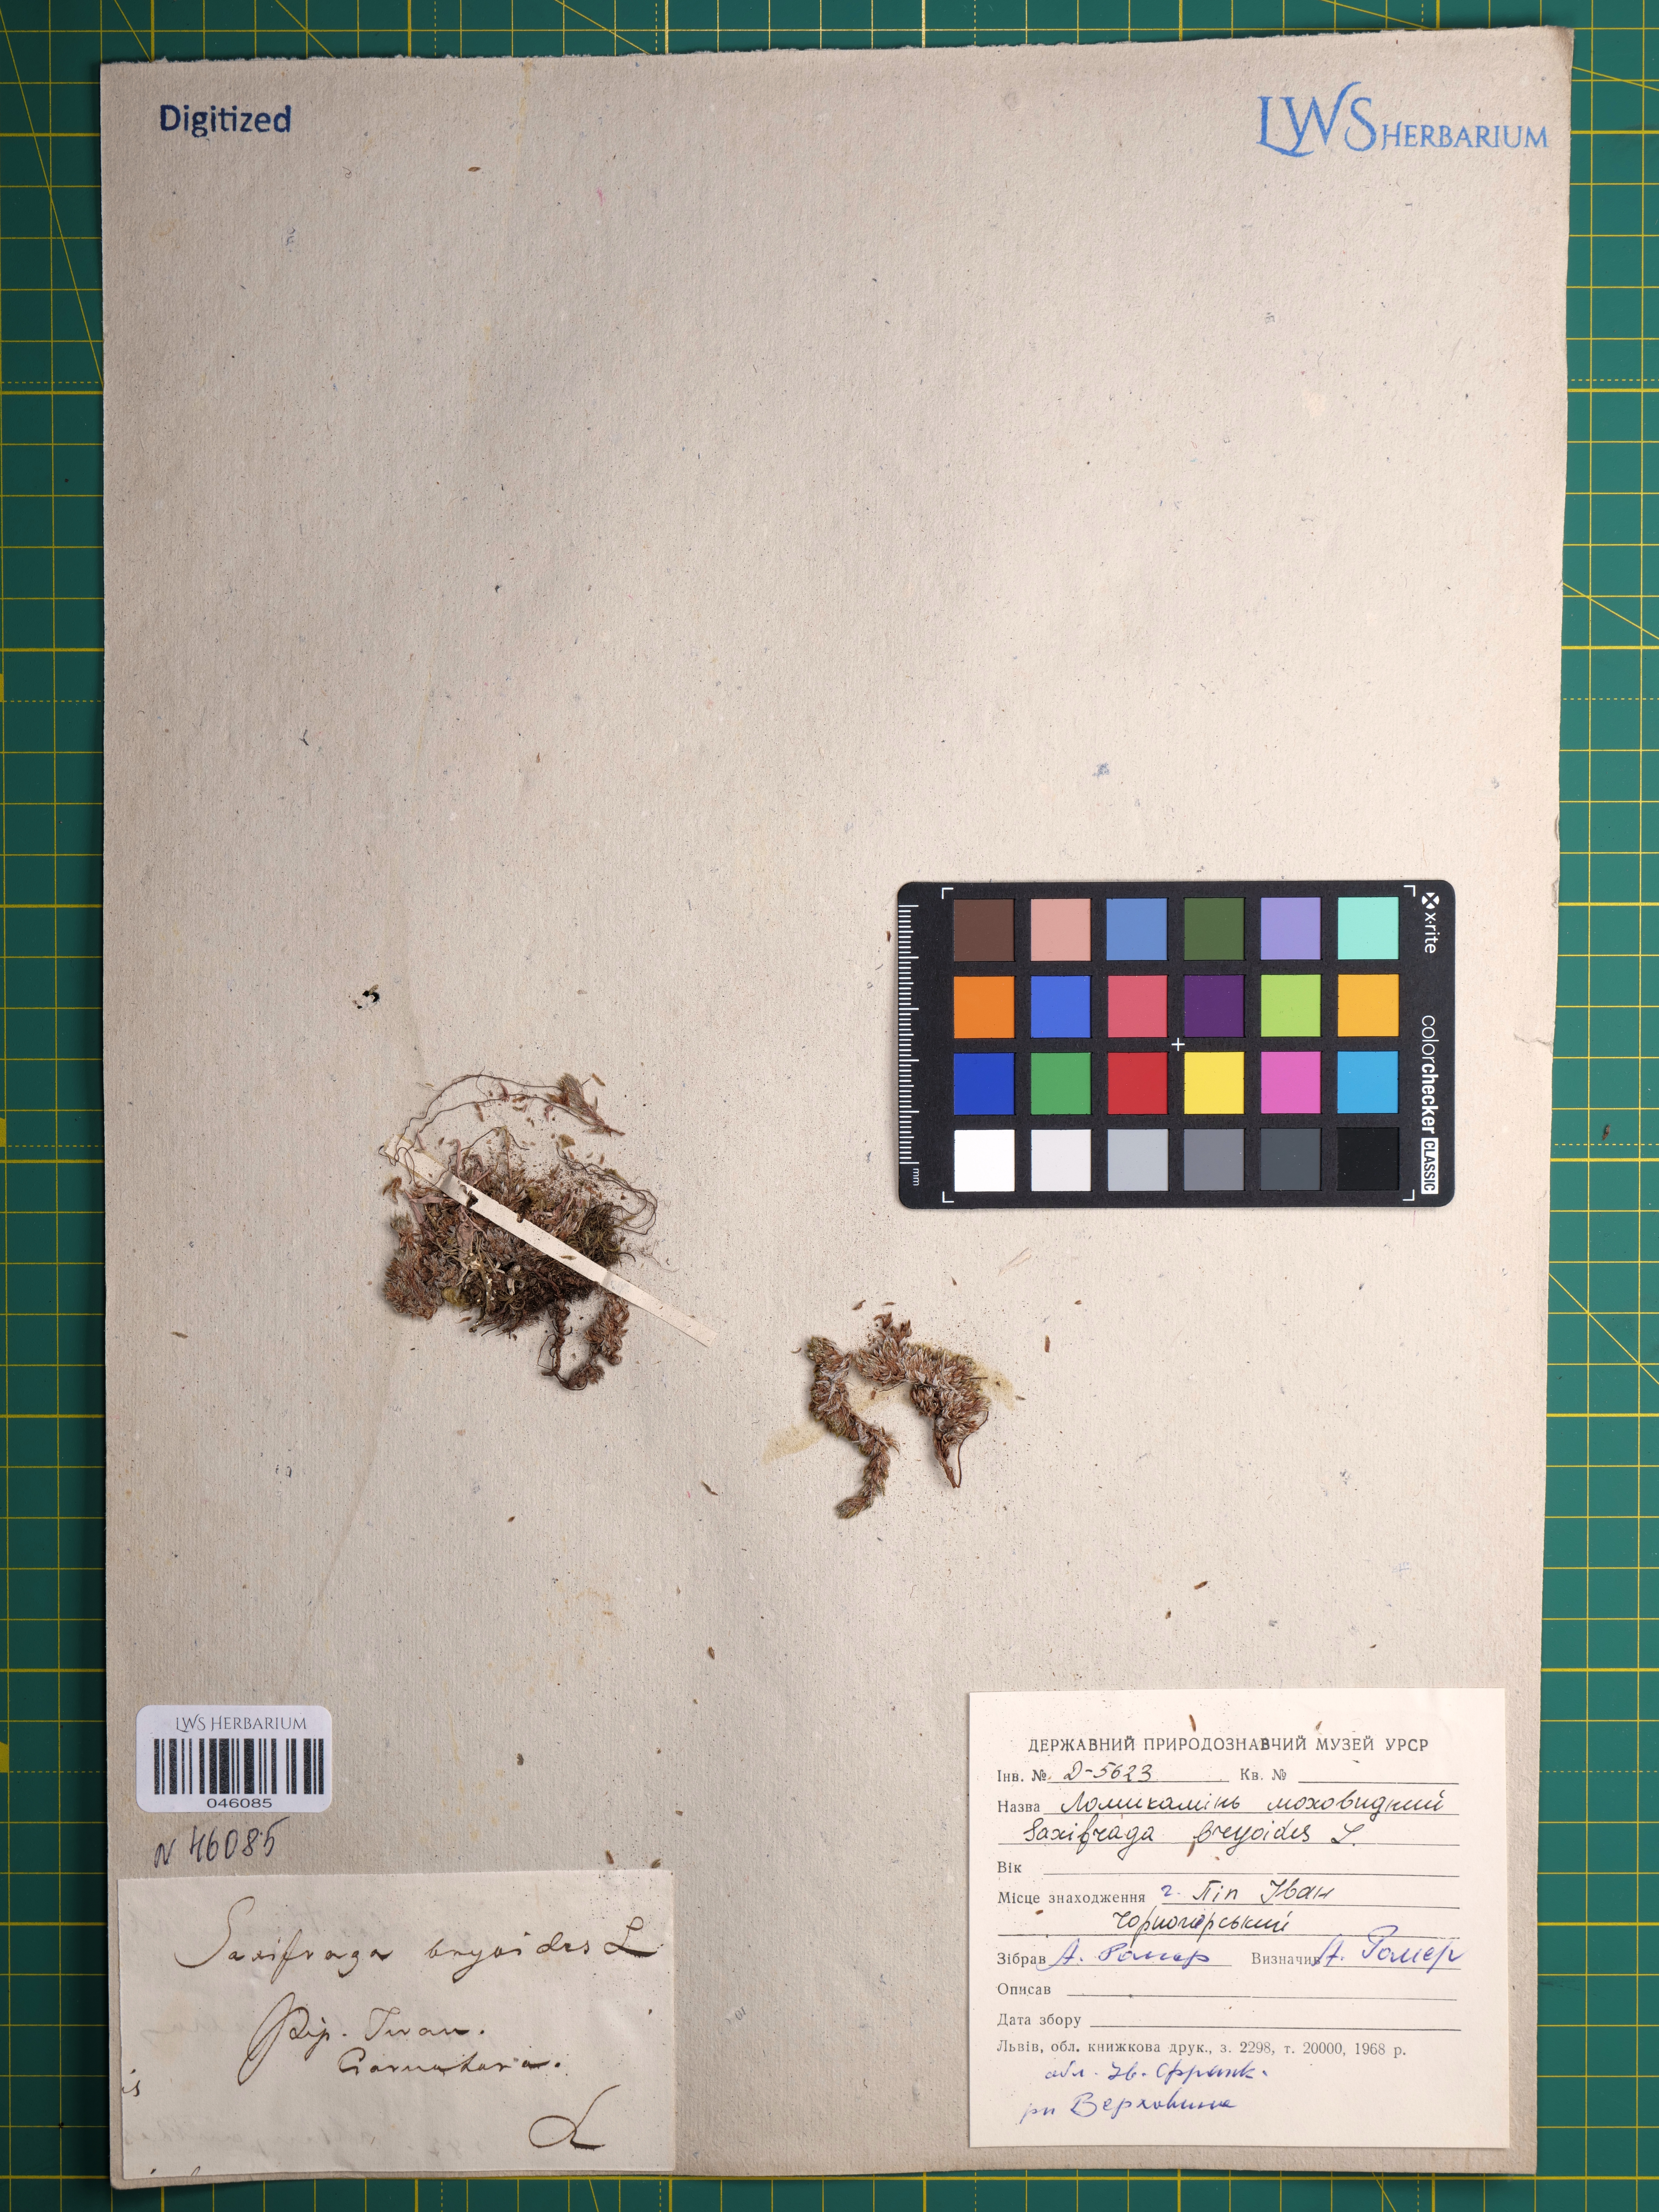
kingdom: Plantae
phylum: Tracheophyta
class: Magnoliopsida
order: Saxifragales
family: Saxifragaceae
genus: Saxifraga
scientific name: Saxifraga bryoides
